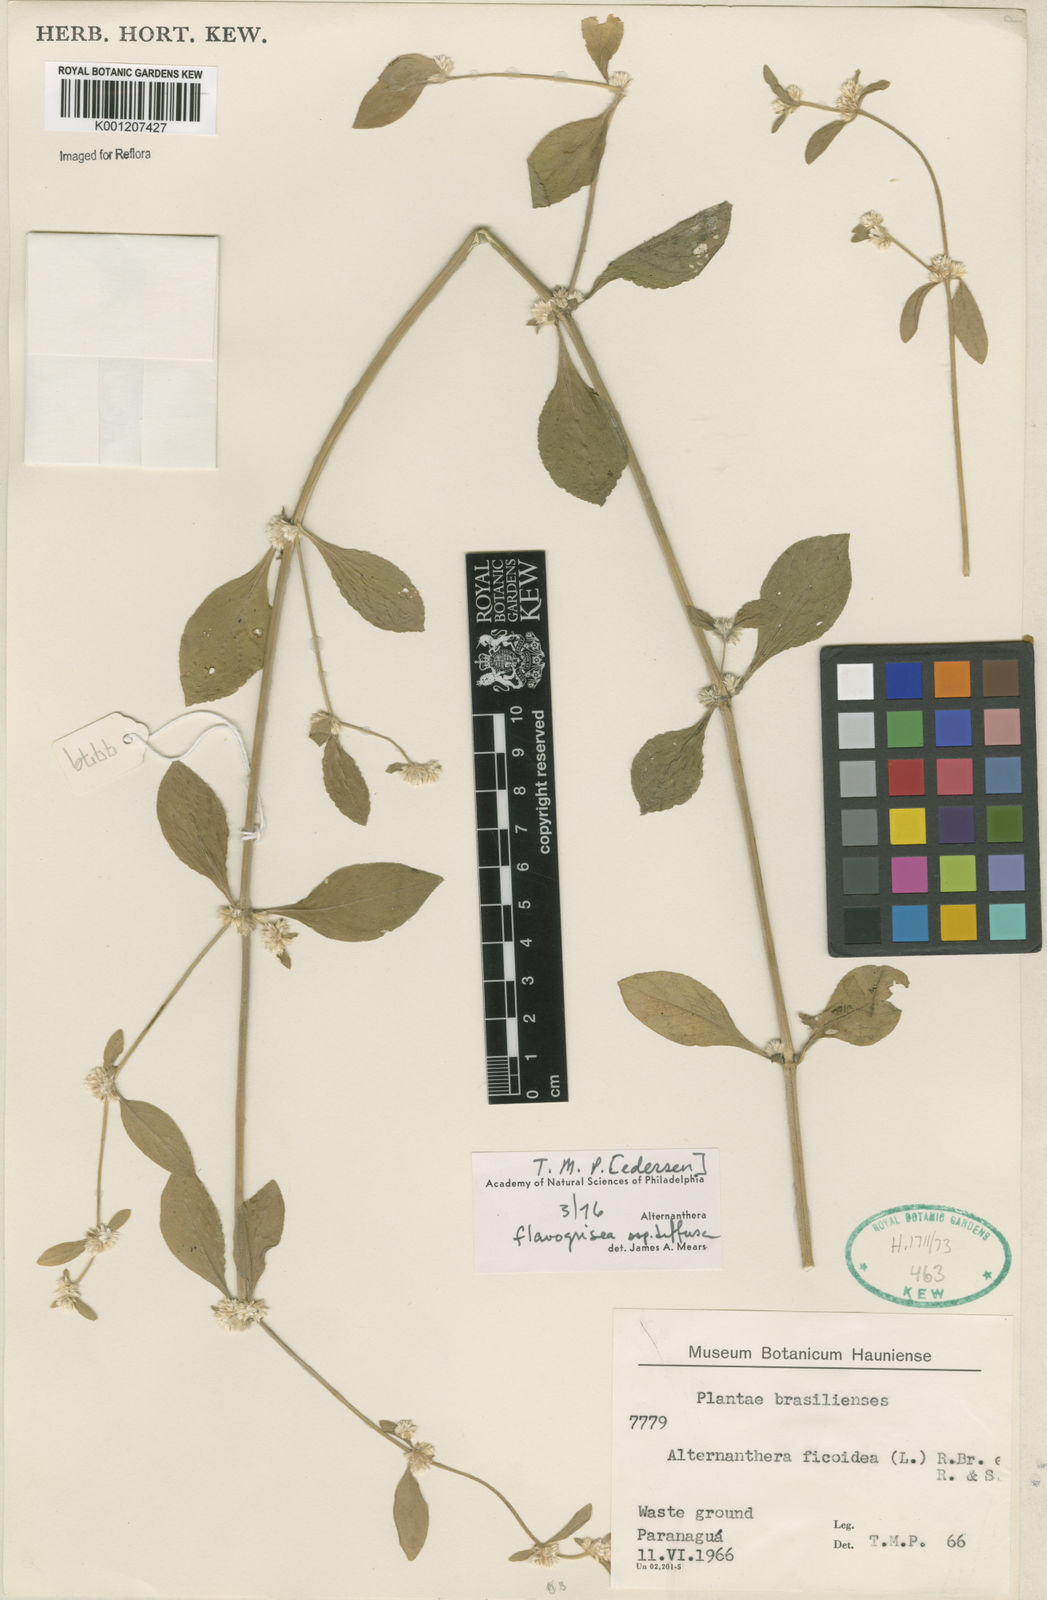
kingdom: Plantae
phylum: Tracheophyta
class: Magnoliopsida
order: Caryophyllales
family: Amaranthaceae
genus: Alternanthera
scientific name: Alternanthera halimifolia
